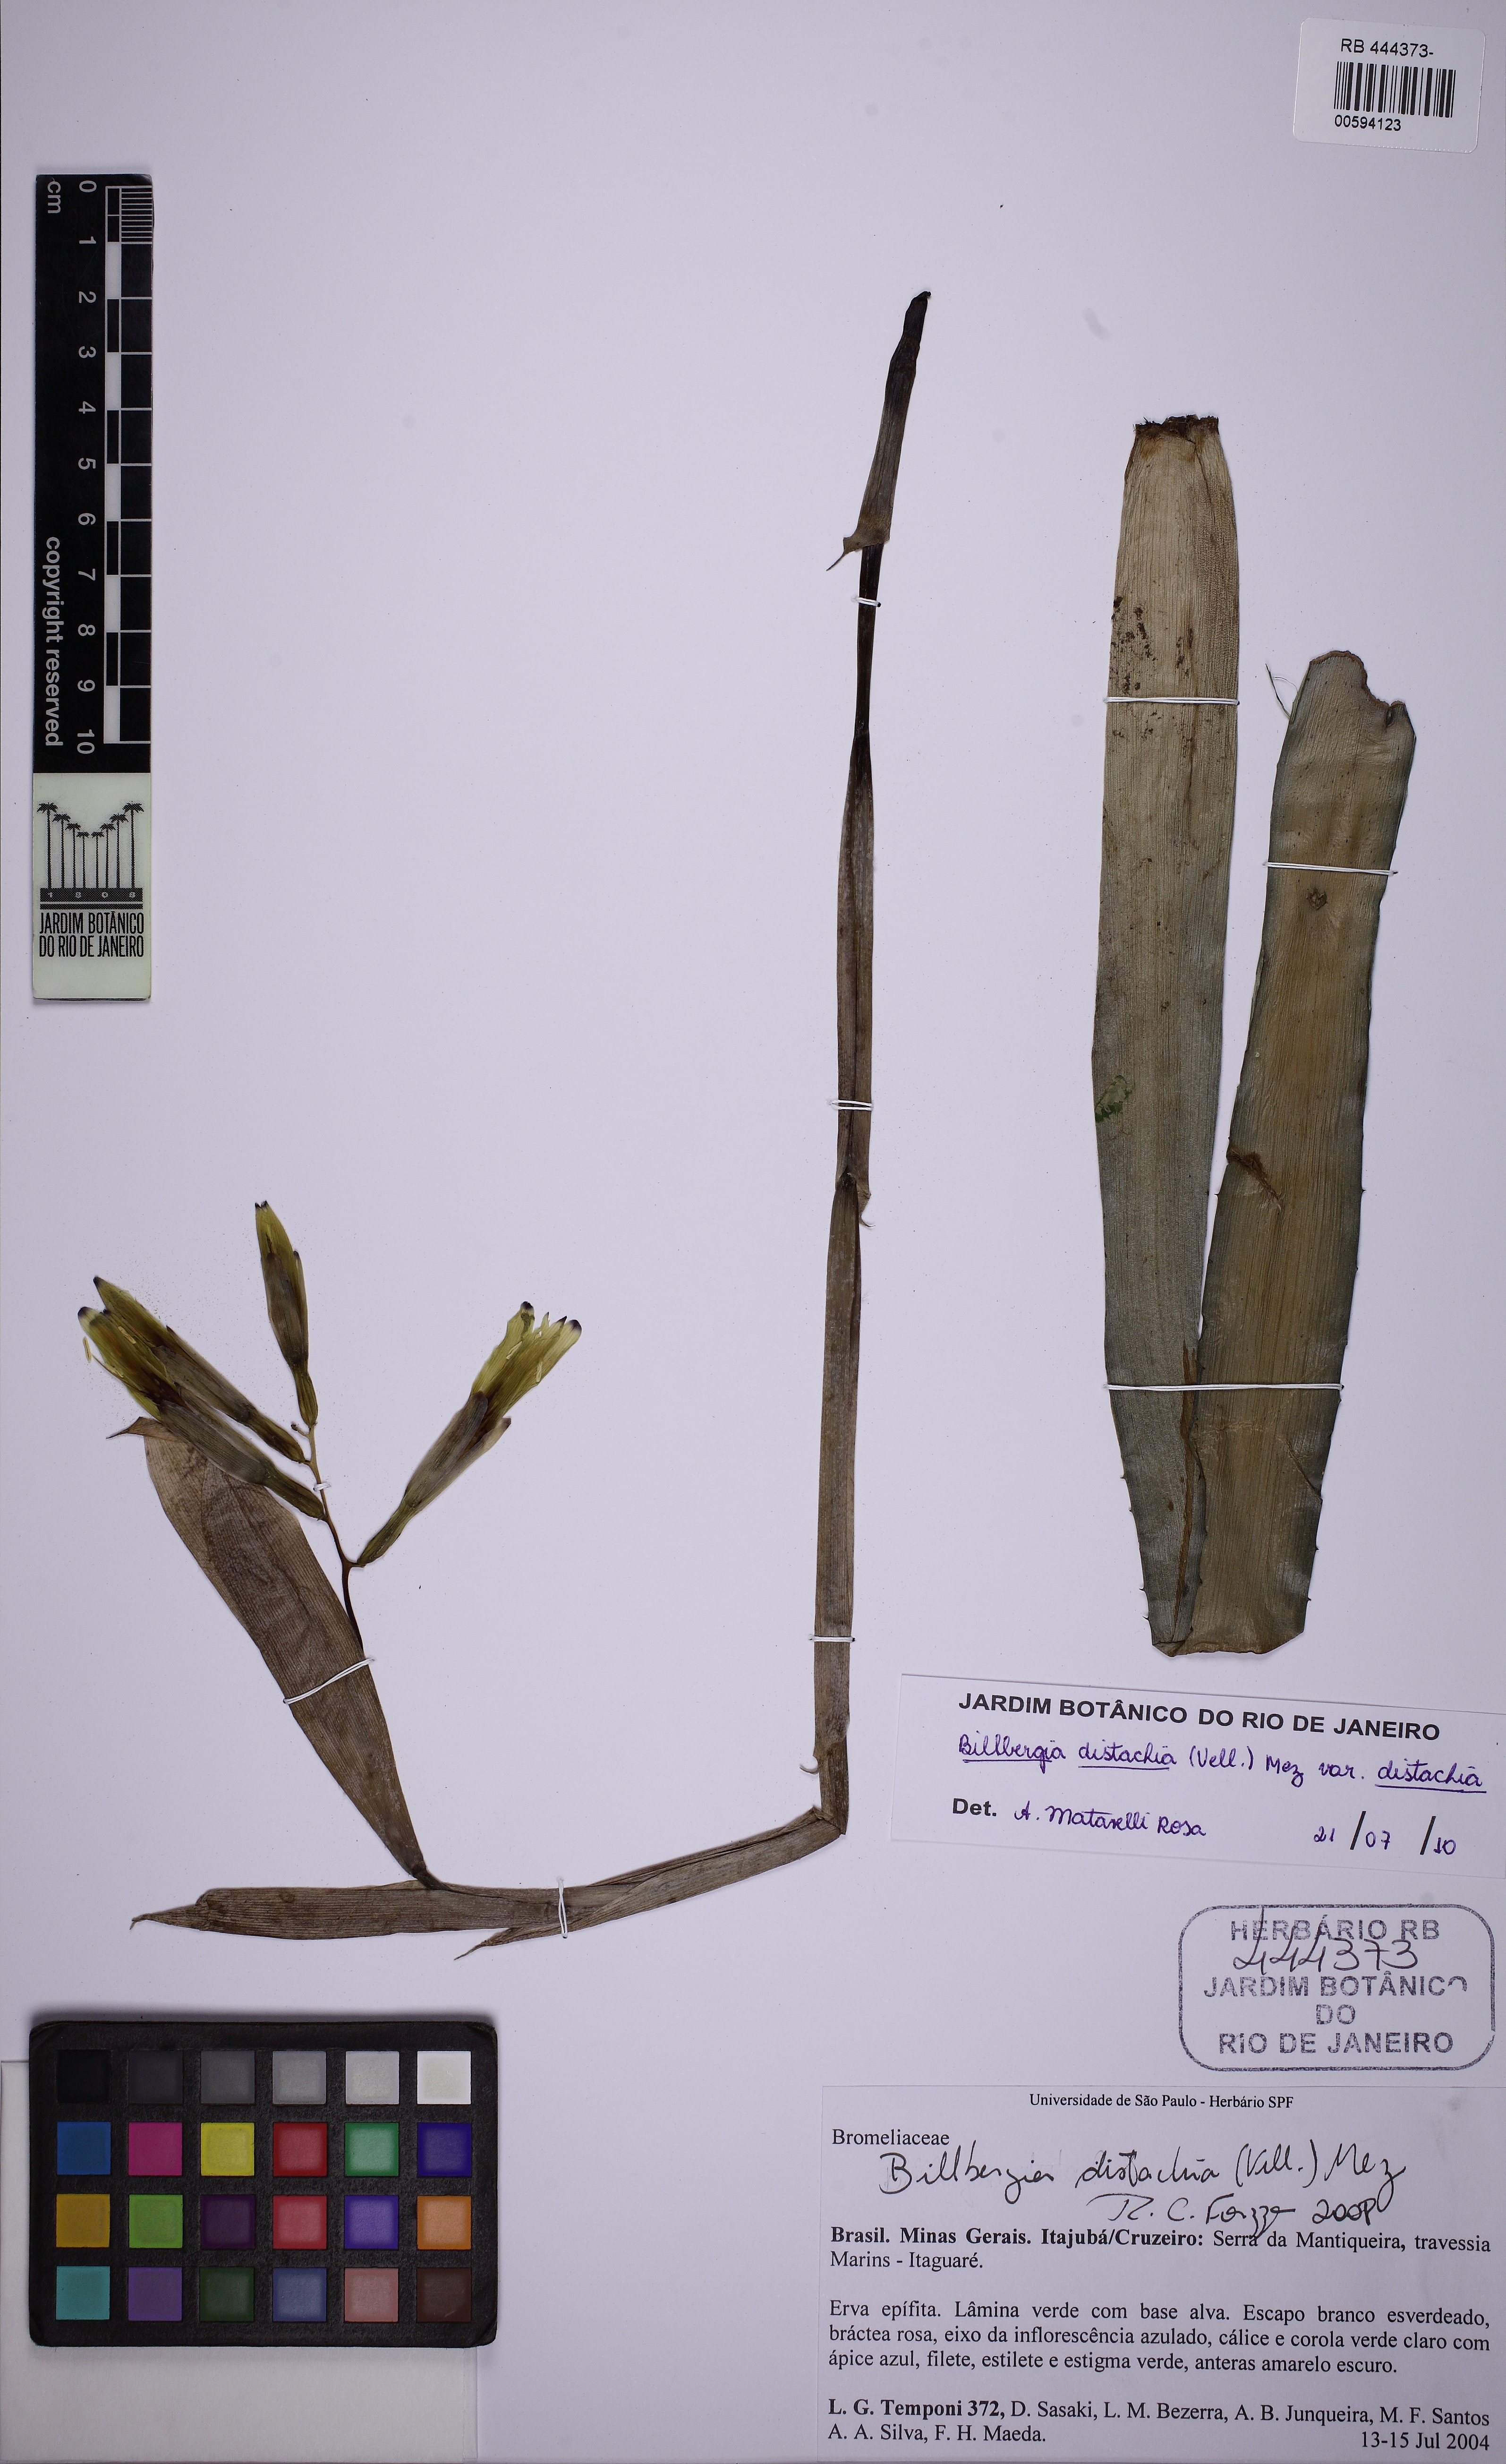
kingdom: Plantae
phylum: Tracheophyta
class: Liliopsida
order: Poales
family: Bromeliaceae
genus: Billbergia
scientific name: Billbergia distachia
